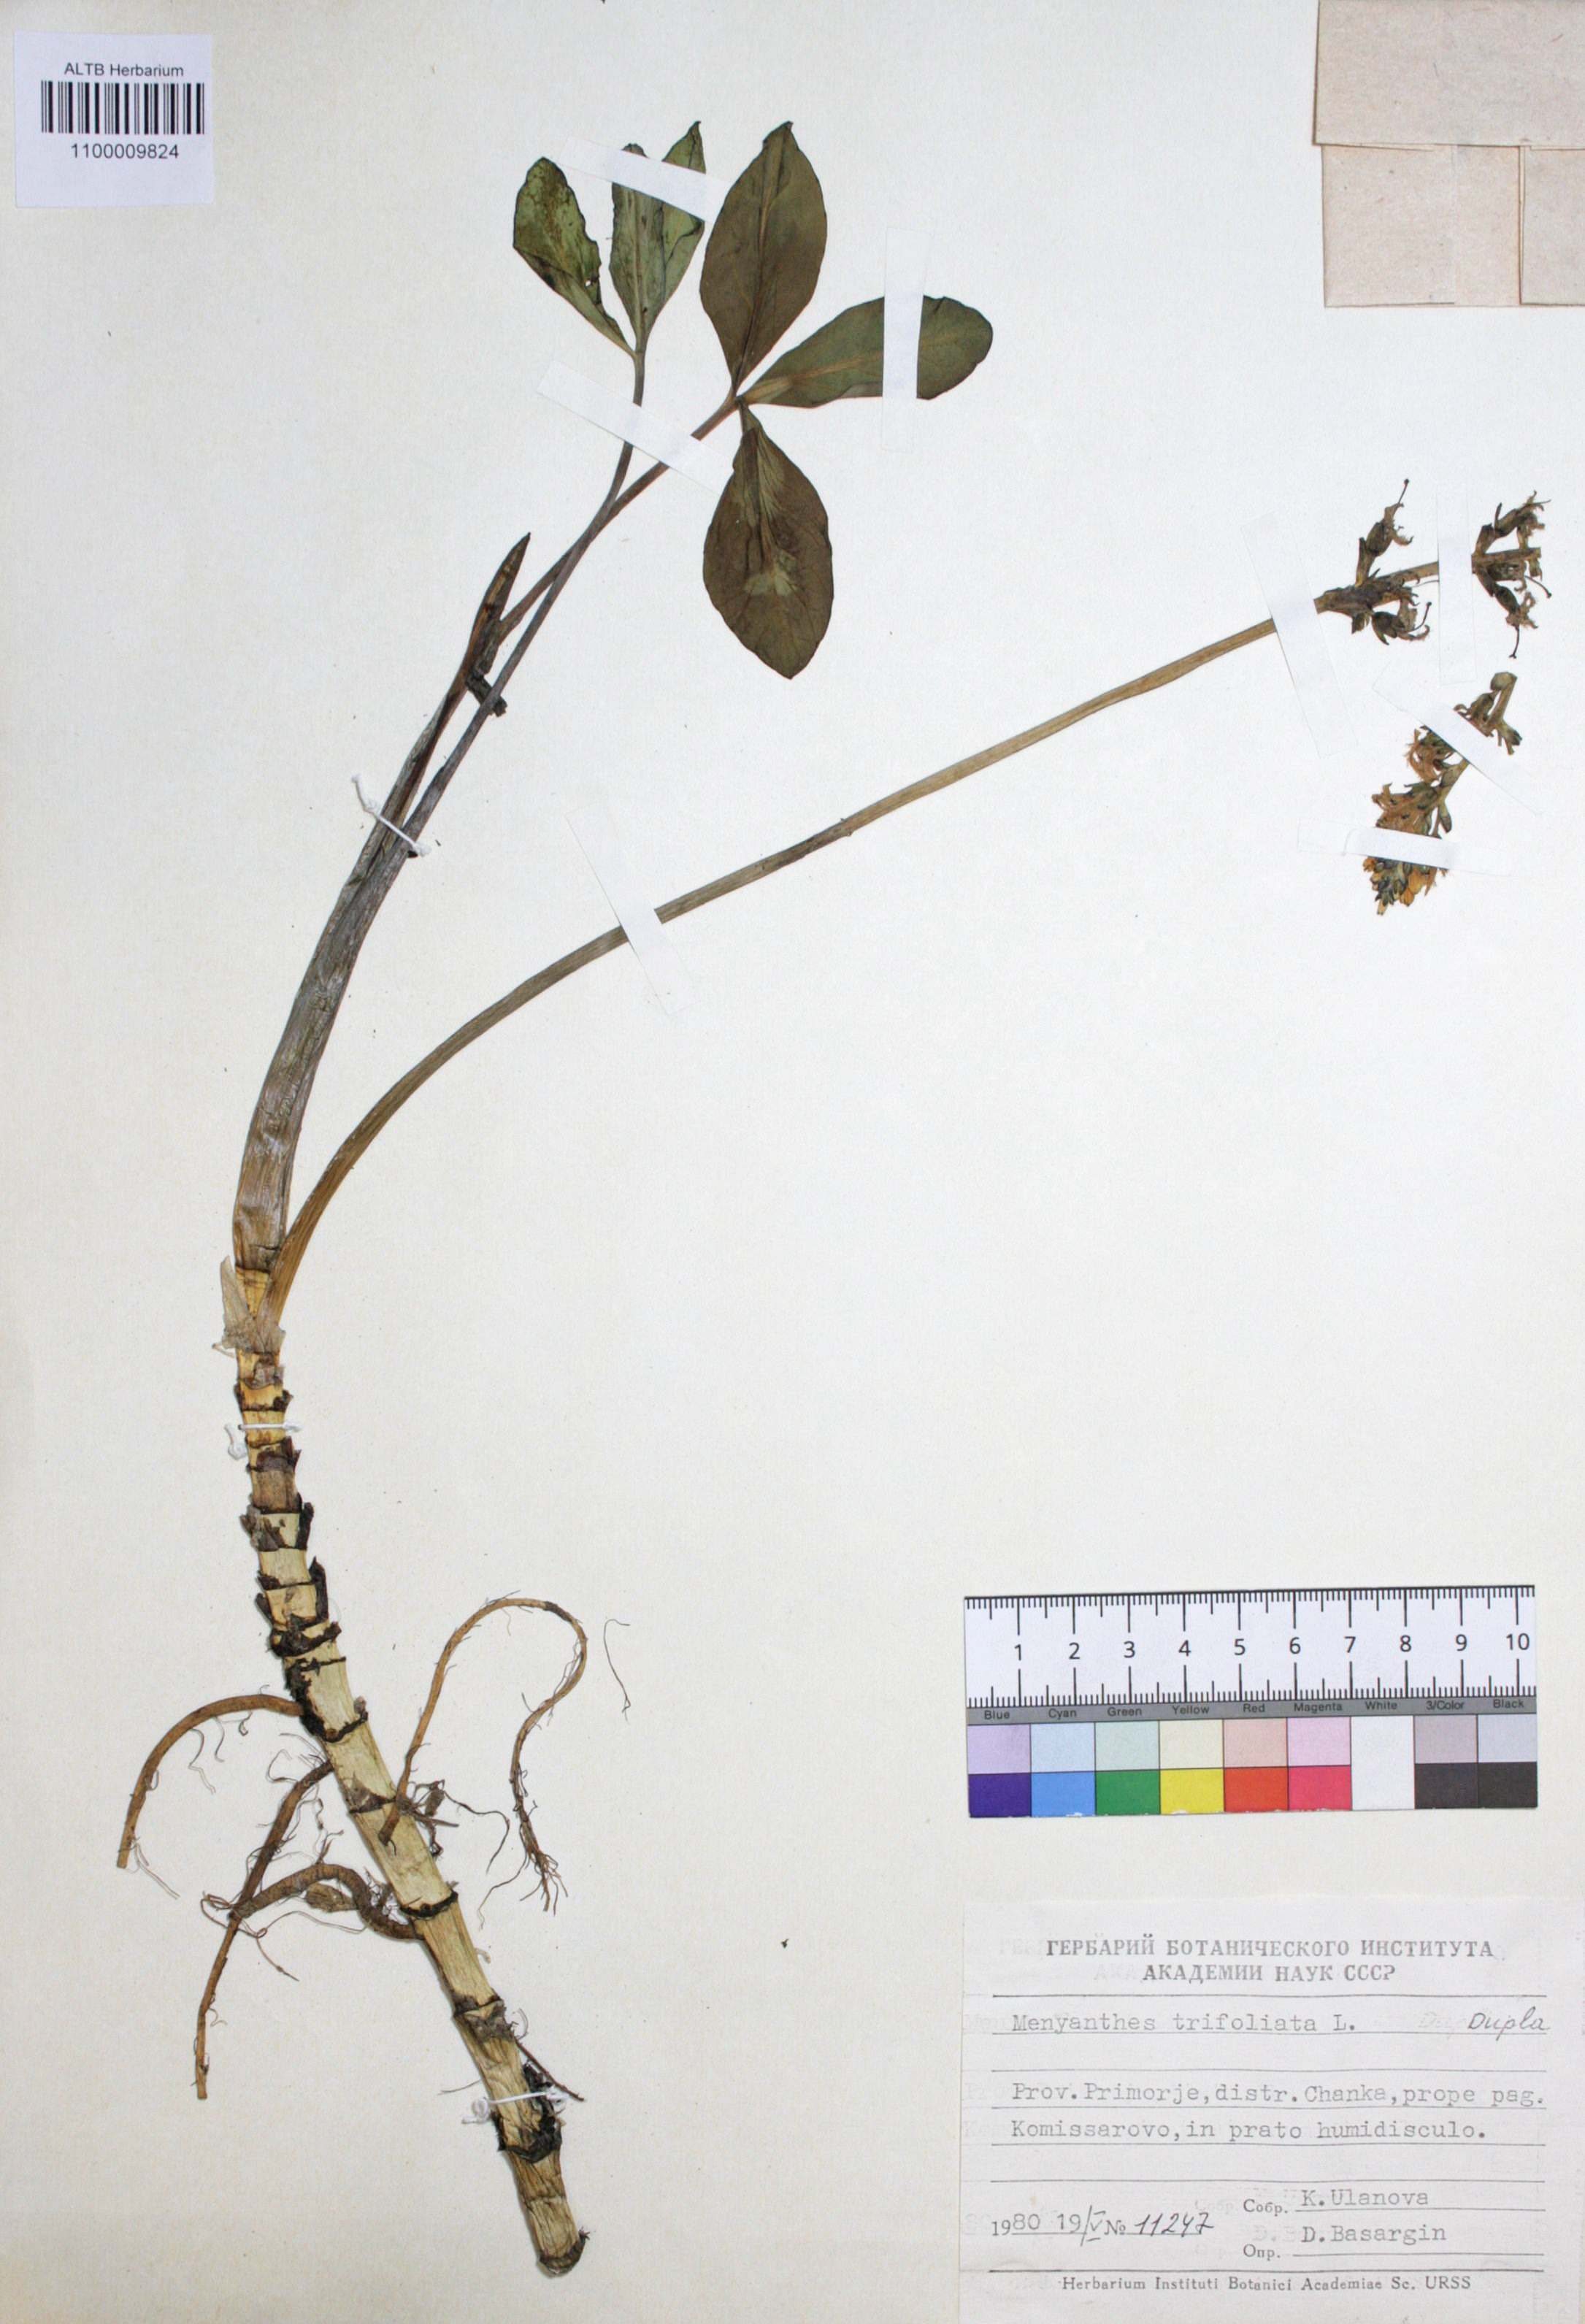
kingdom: Plantae
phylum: Tracheophyta
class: Magnoliopsida
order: Asterales
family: Menyanthaceae
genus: Menyanthes
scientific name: Menyanthes trifoliata
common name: Bogbean
